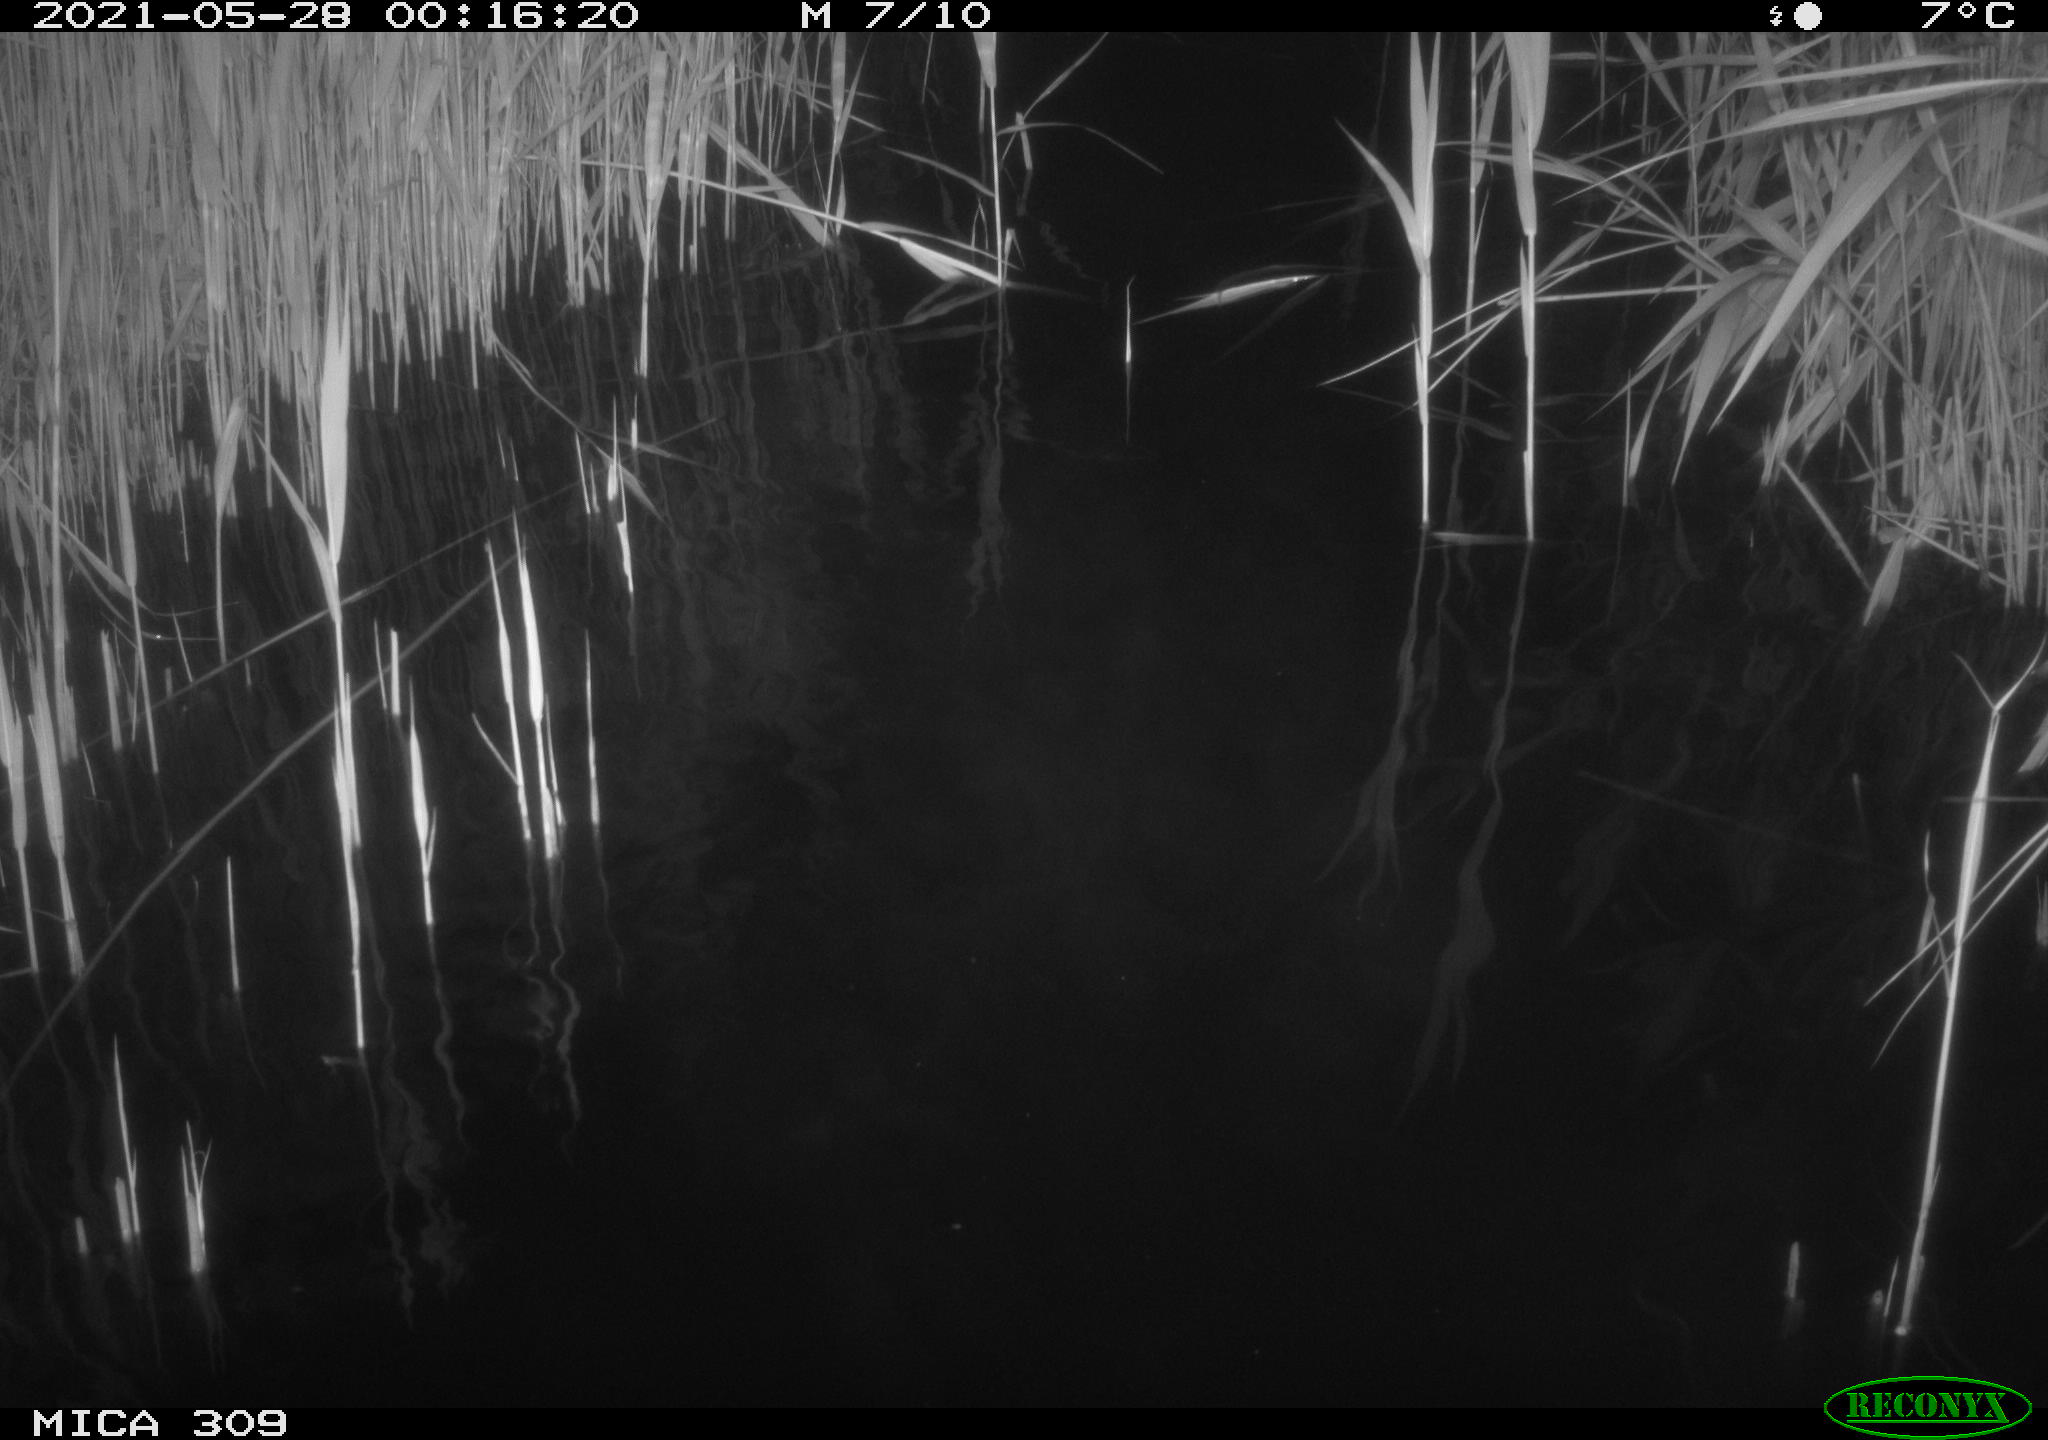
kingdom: Animalia
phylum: Chordata
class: Mammalia
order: Rodentia
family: Cricetidae
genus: Ondatra
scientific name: Ondatra zibethicus
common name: Muskrat
